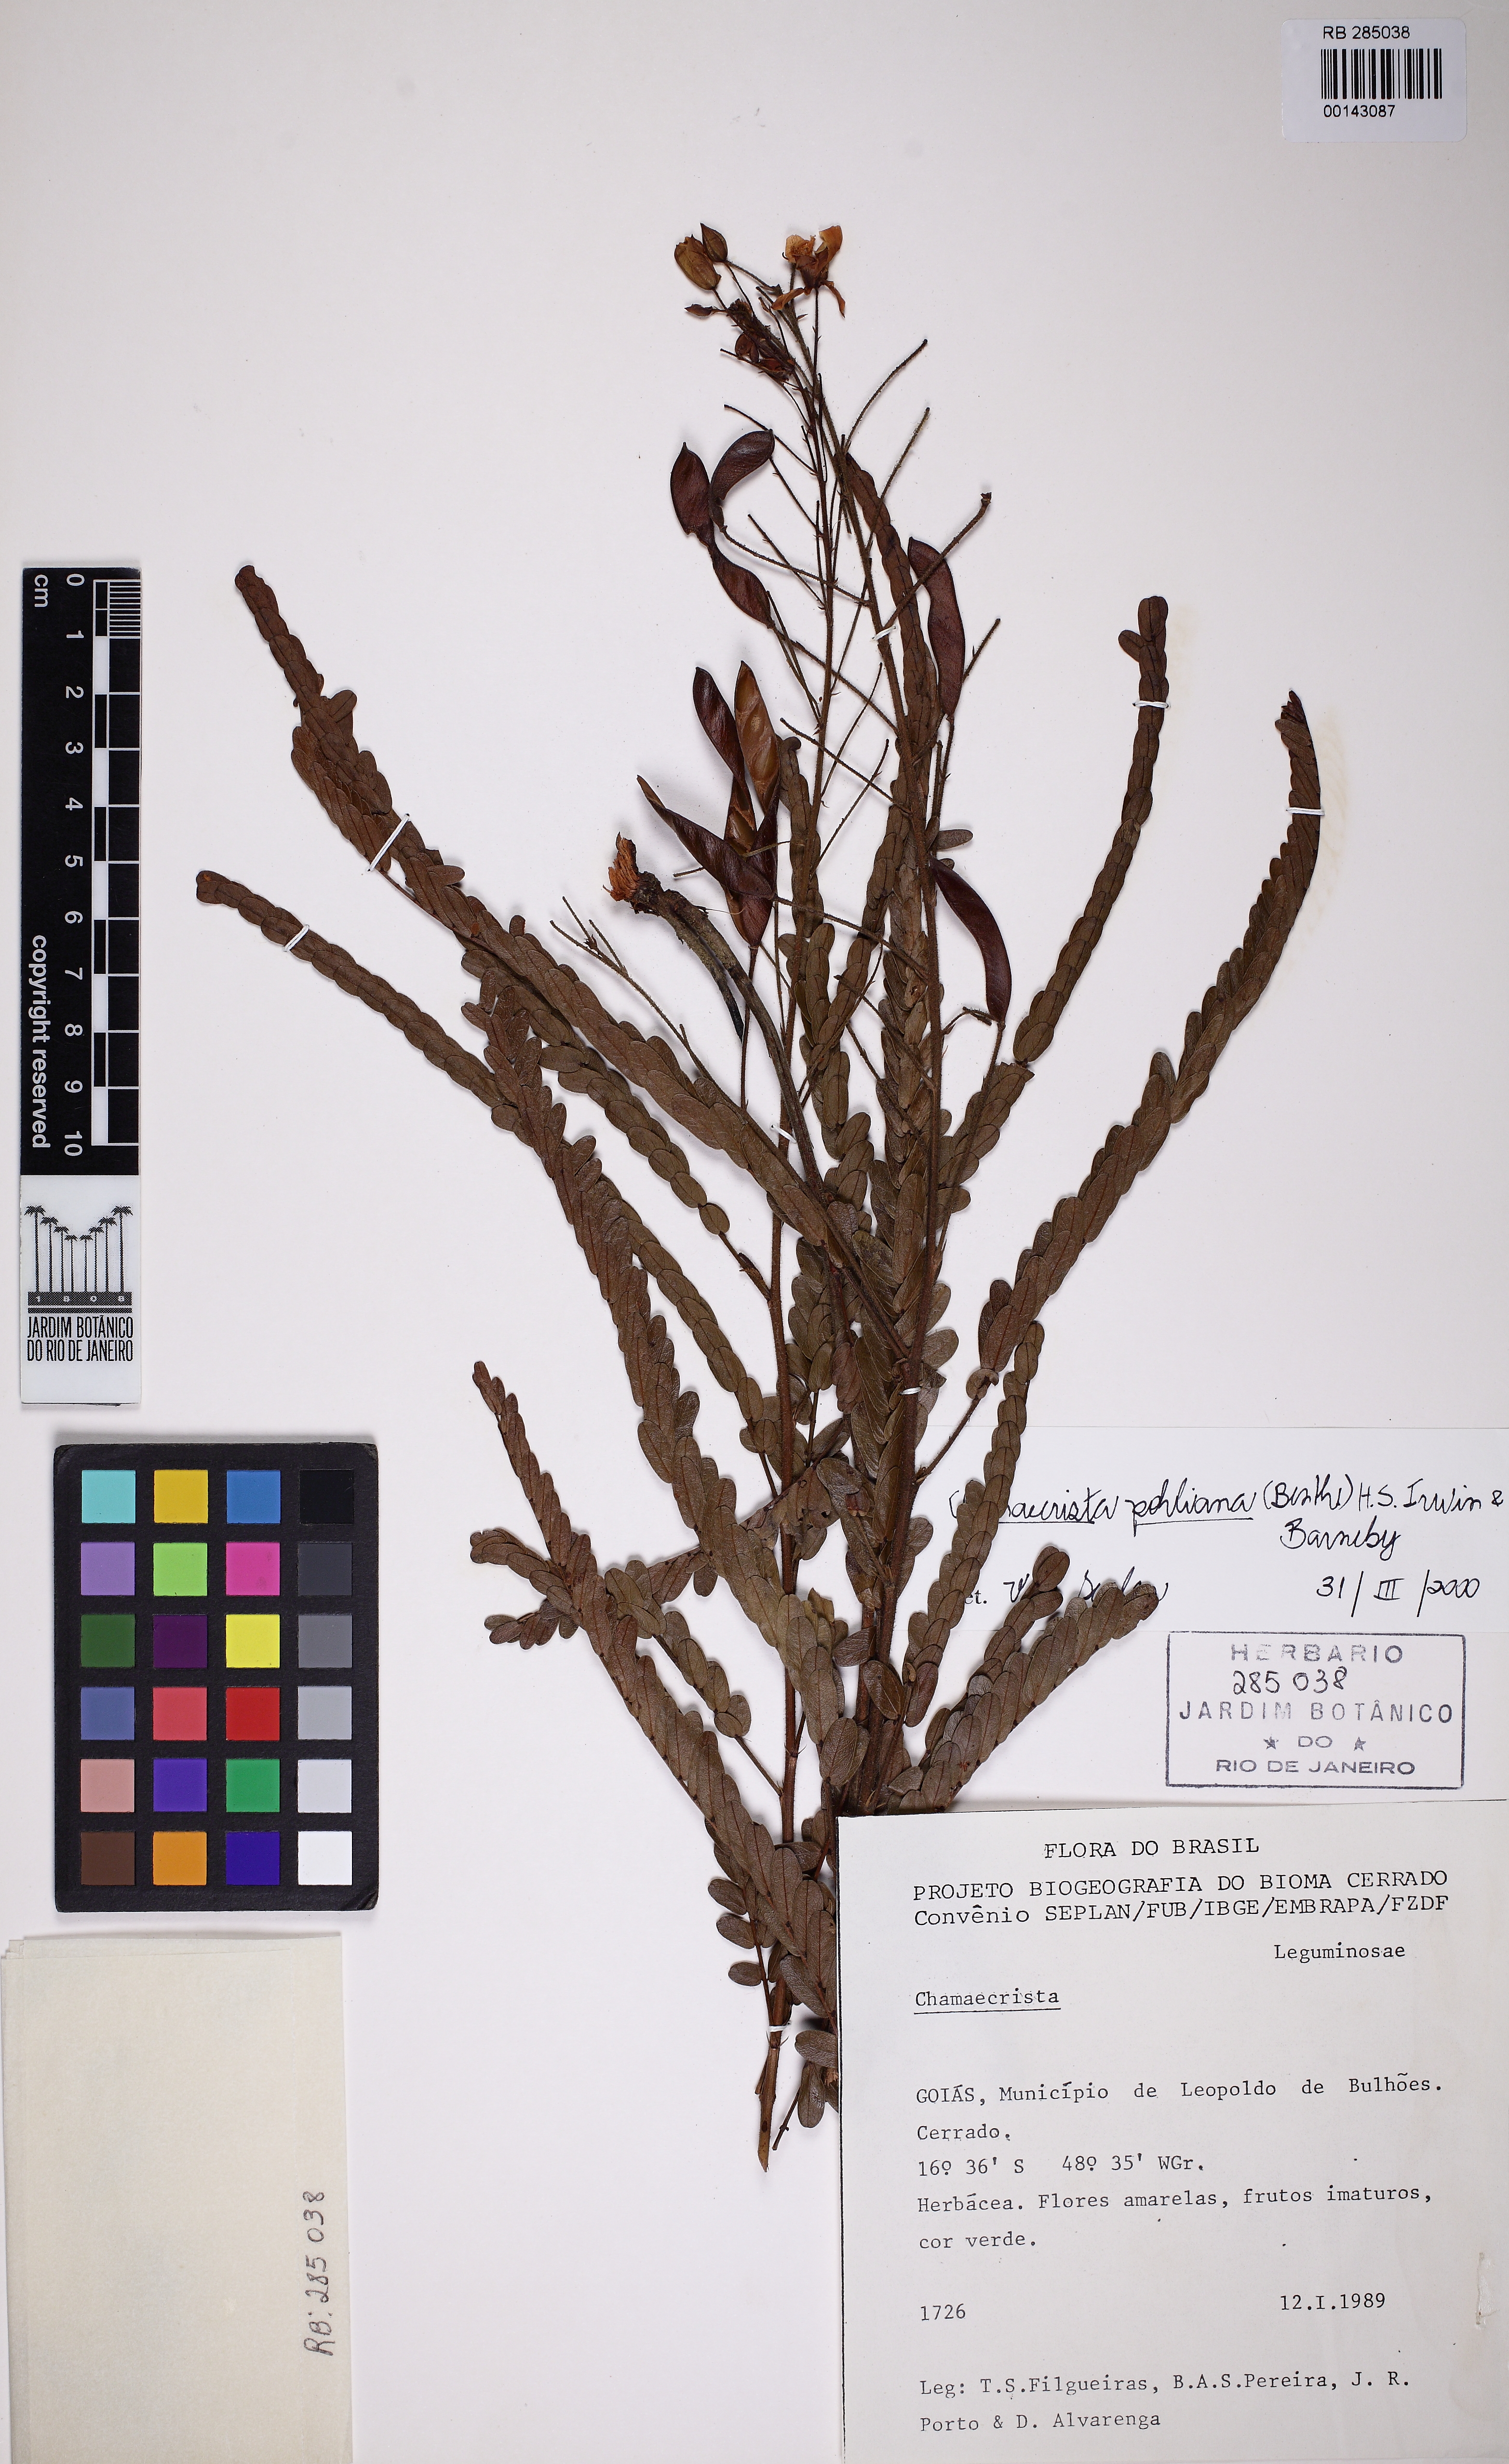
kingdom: Plantae
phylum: Tracheophyta
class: Magnoliopsida
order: Fabales
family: Fabaceae
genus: Chamaecrista
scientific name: Chamaecrista pohliana
